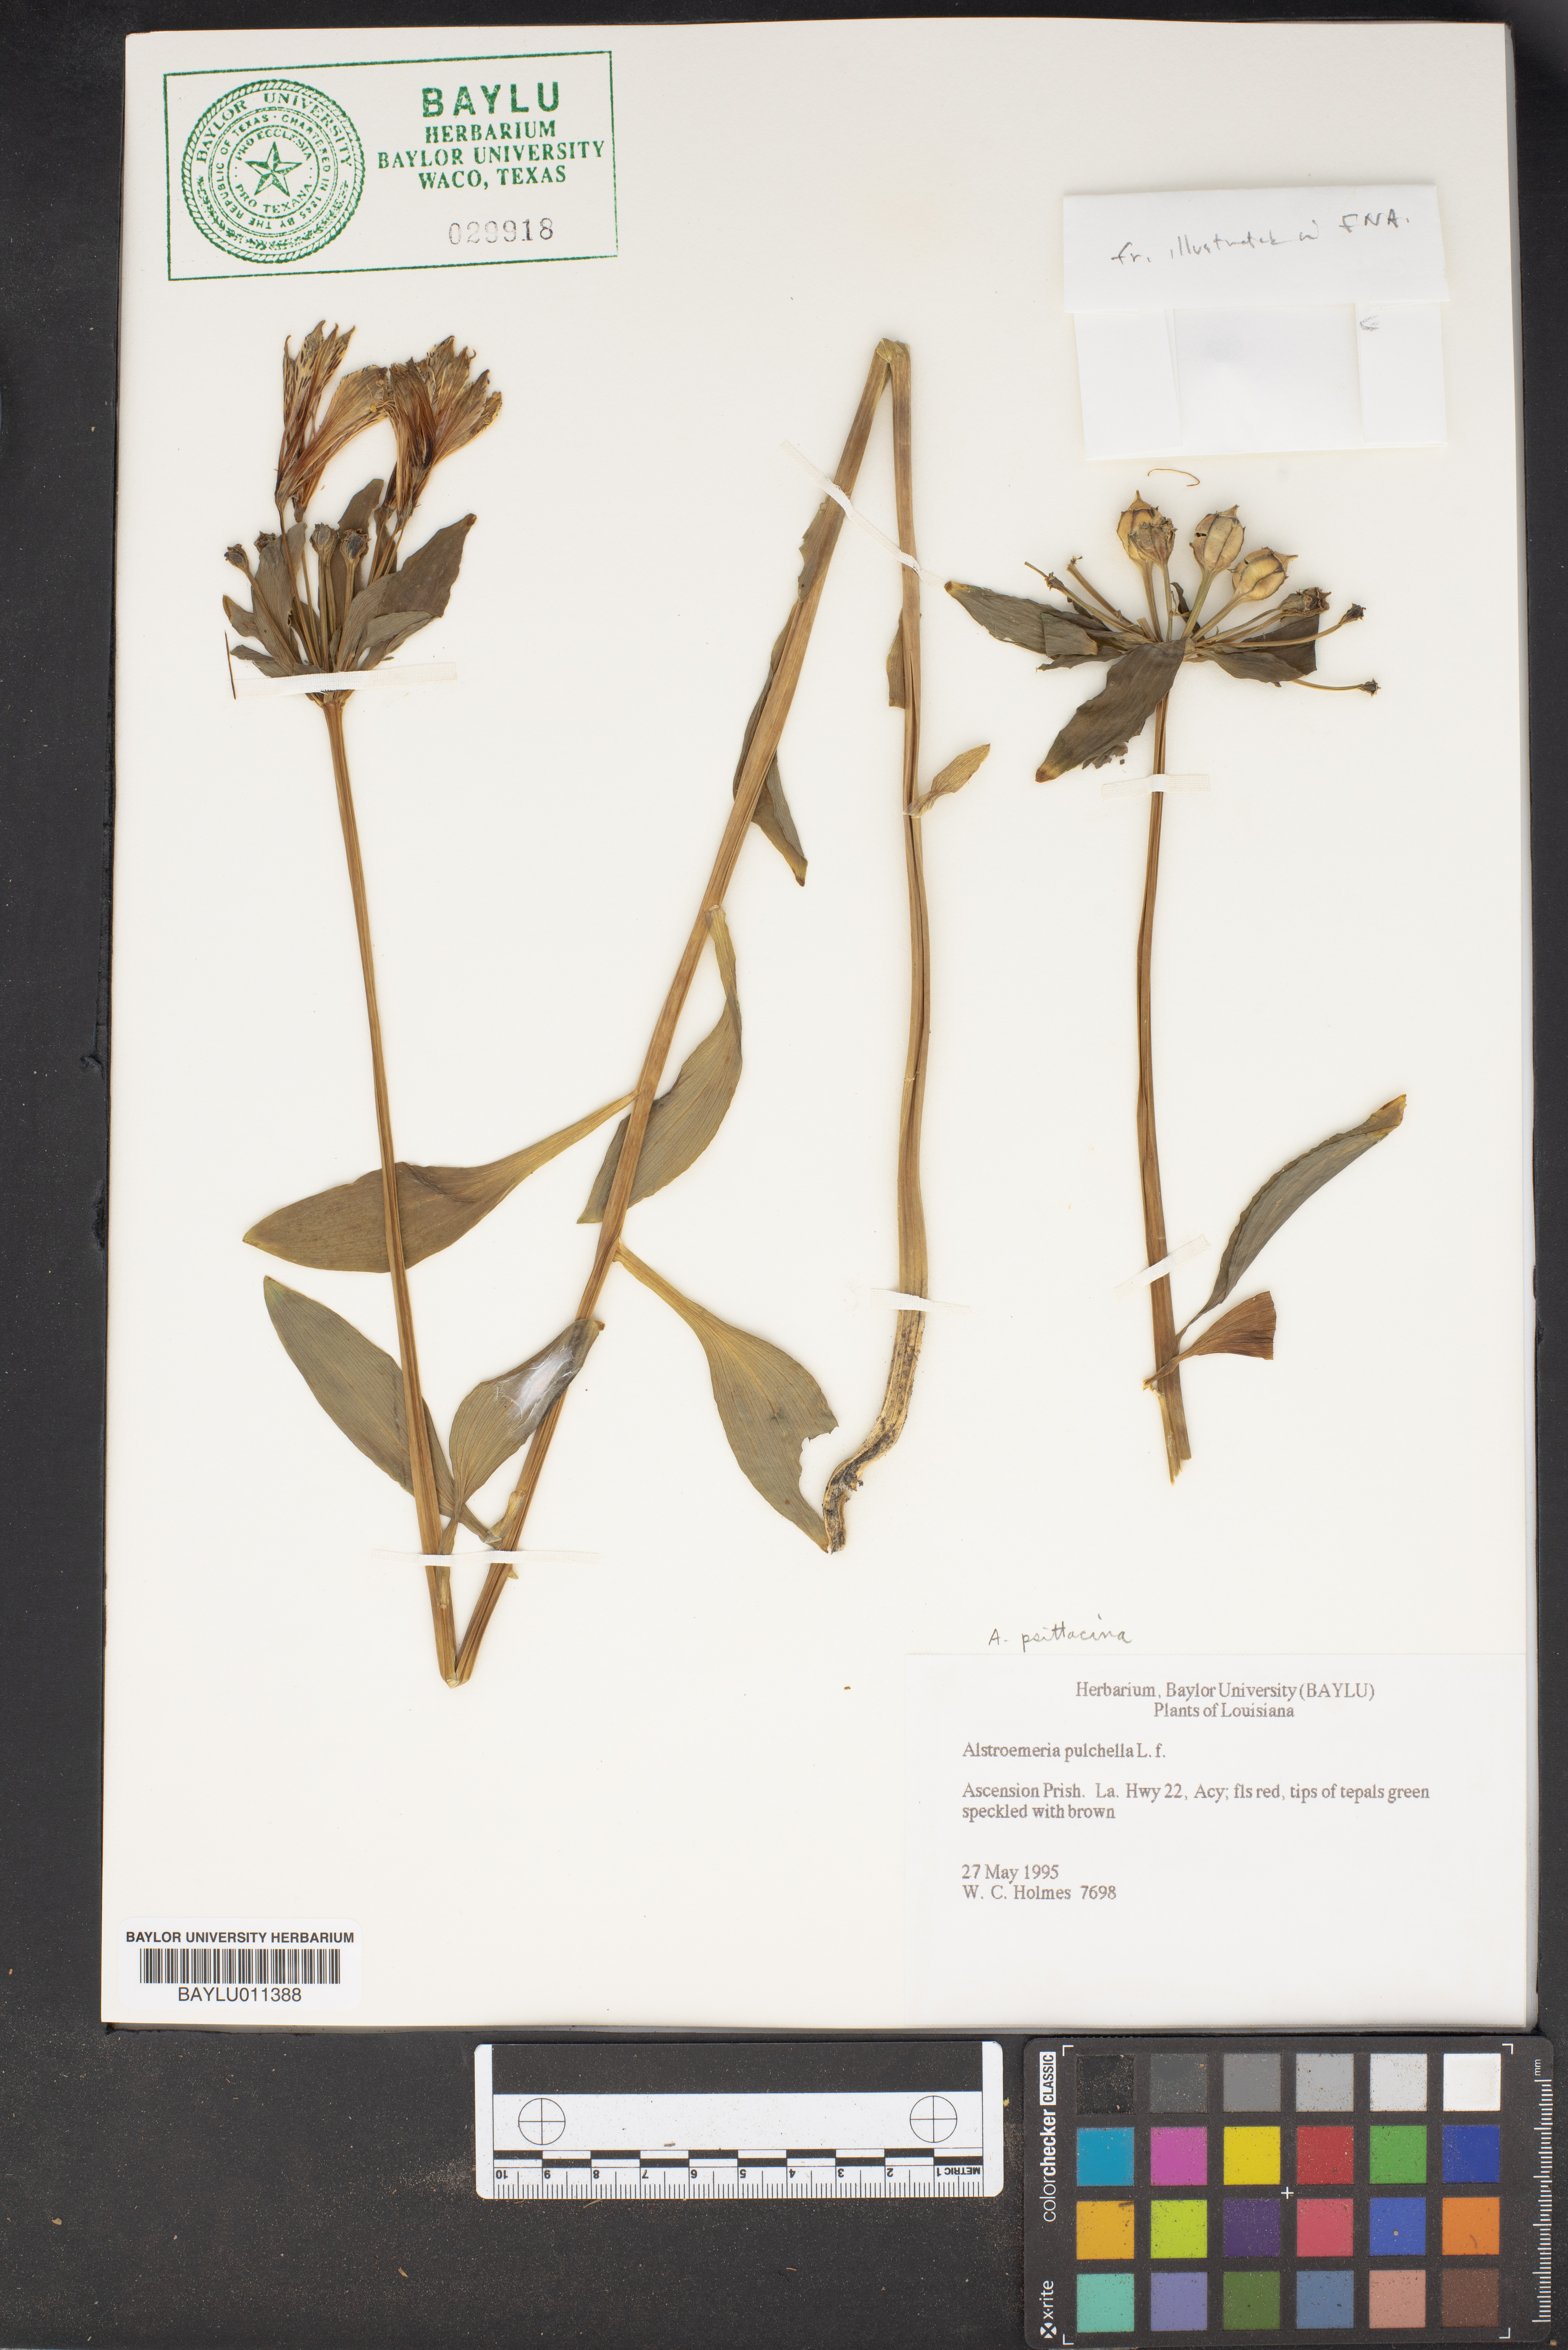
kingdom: Plantae
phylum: Tracheophyta
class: Liliopsida
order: Liliales
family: Alstroemeriaceae
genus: Alstroemeria
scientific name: Alstroemeria pelegrina
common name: Peruvian-lily
